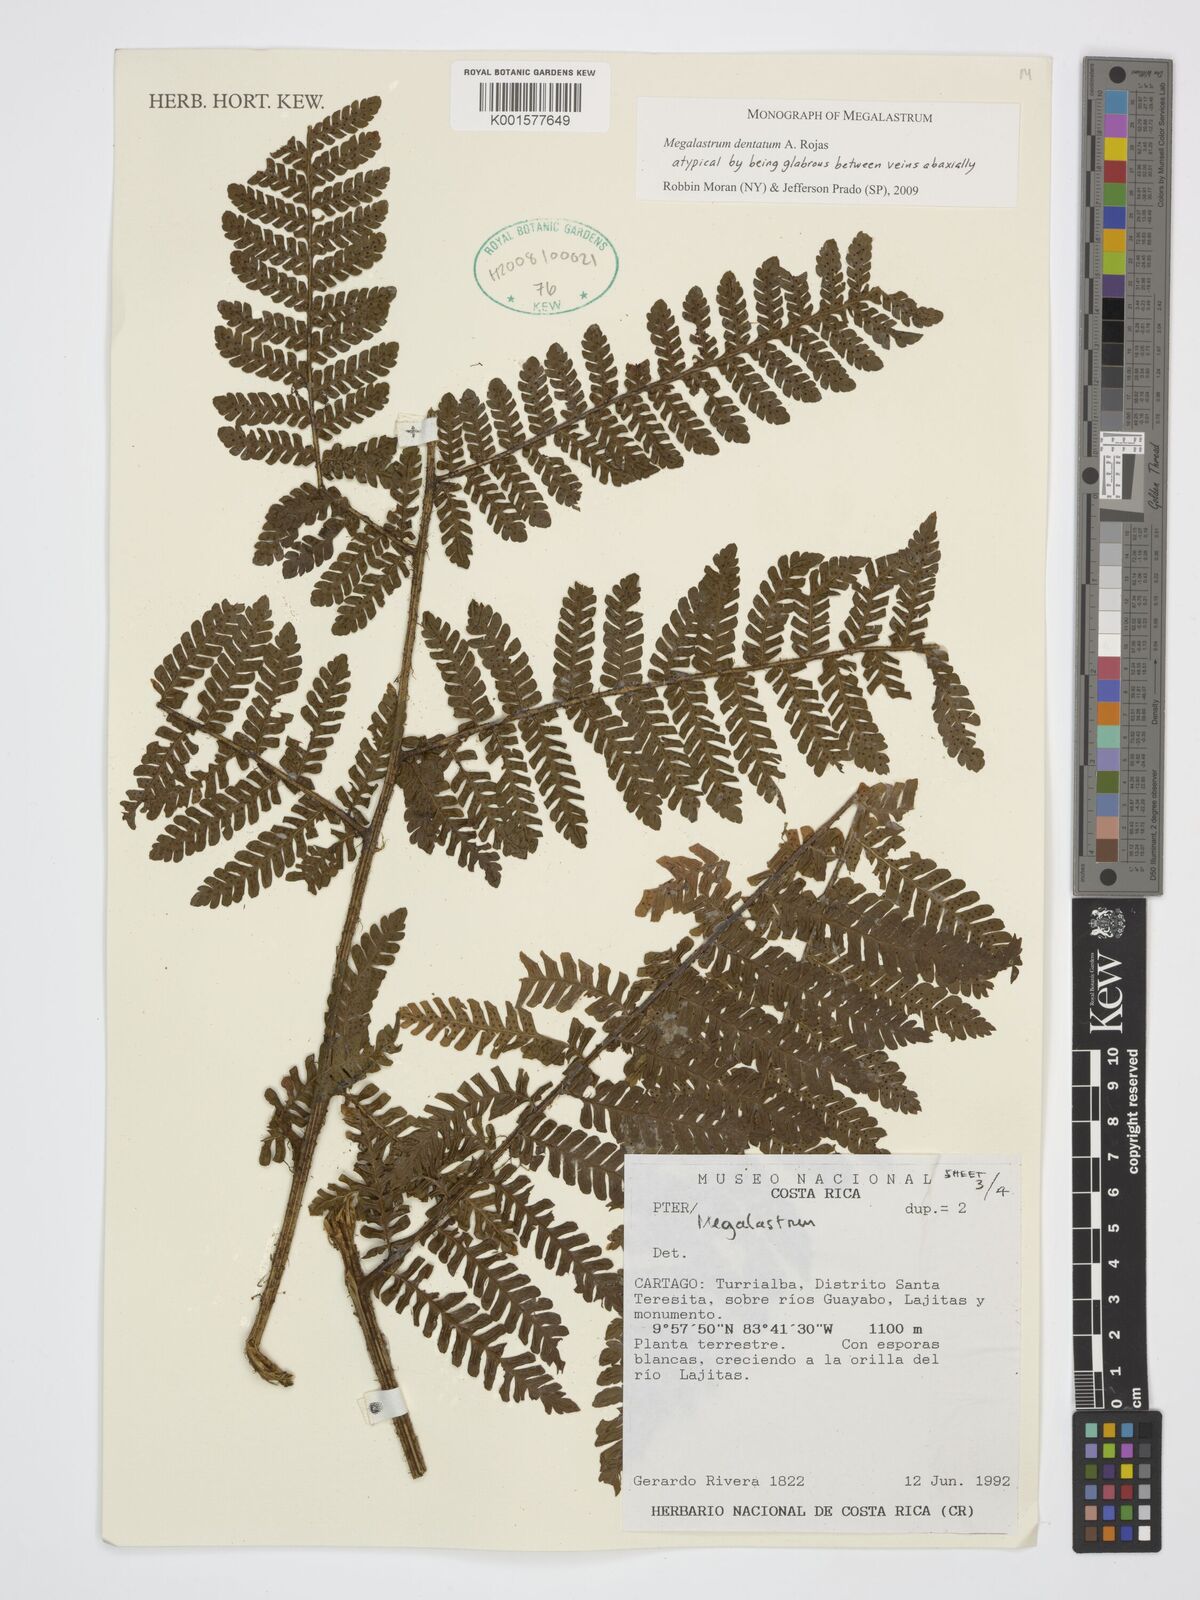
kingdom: Plantae
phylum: Tracheophyta
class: Polypodiopsida
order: Polypodiales
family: Dryopteridaceae
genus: Megalastrum
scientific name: Megalastrum dentatum
